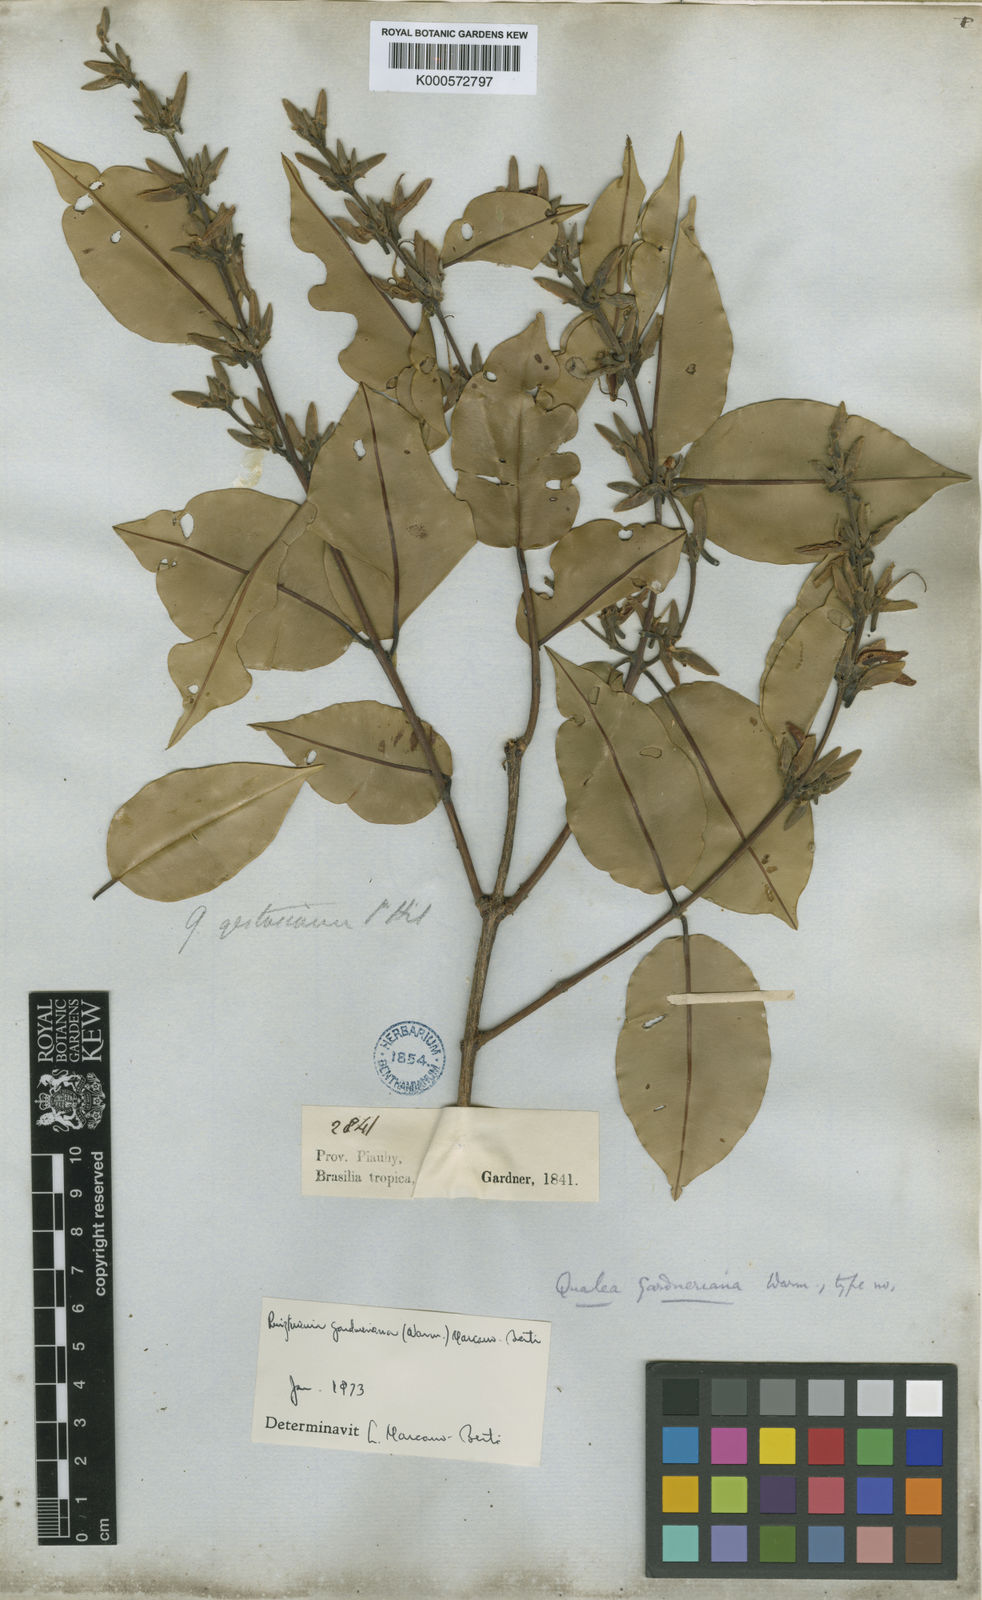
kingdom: Plantae
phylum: Tracheophyta
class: Magnoliopsida
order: Myrtales
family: Vochysiaceae
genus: Ruizterania
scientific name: Ruizterania gardneriana
